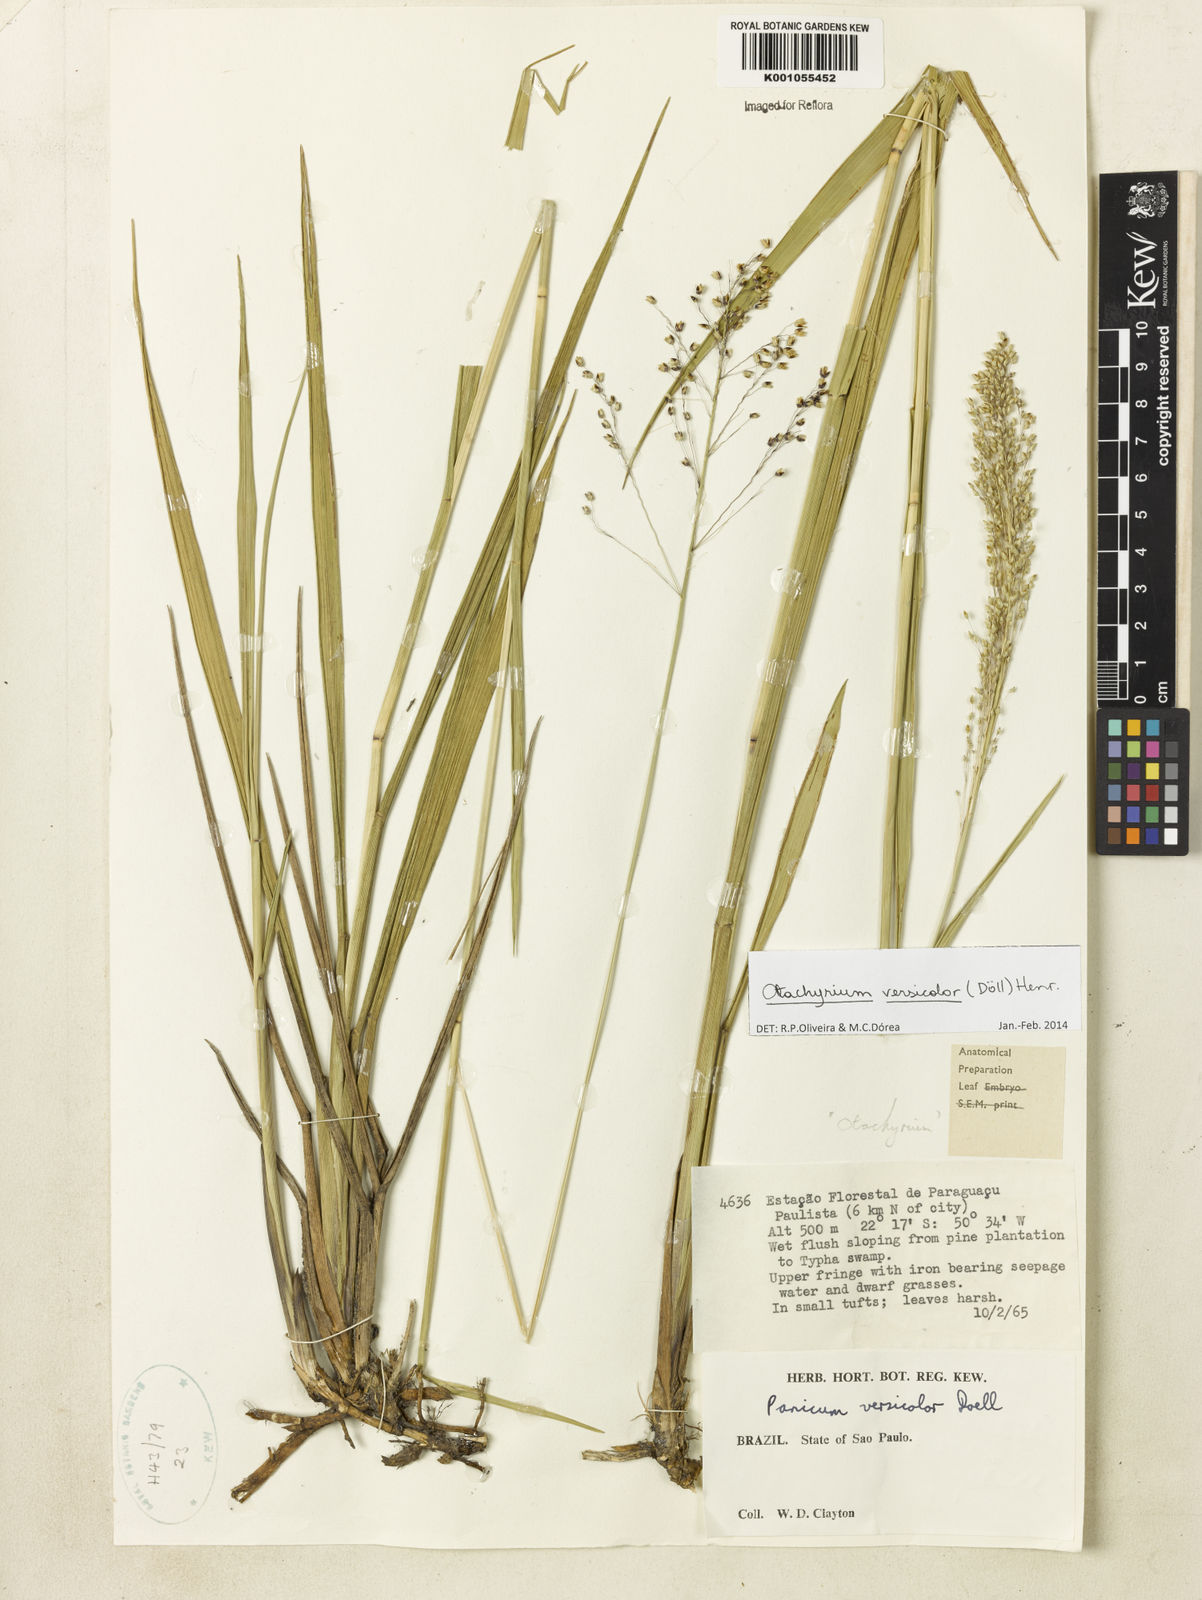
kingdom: Plantae
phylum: Tracheophyta
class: Liliopsida
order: Poales
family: Poaceae
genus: Otachyrium
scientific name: Otachyrium
